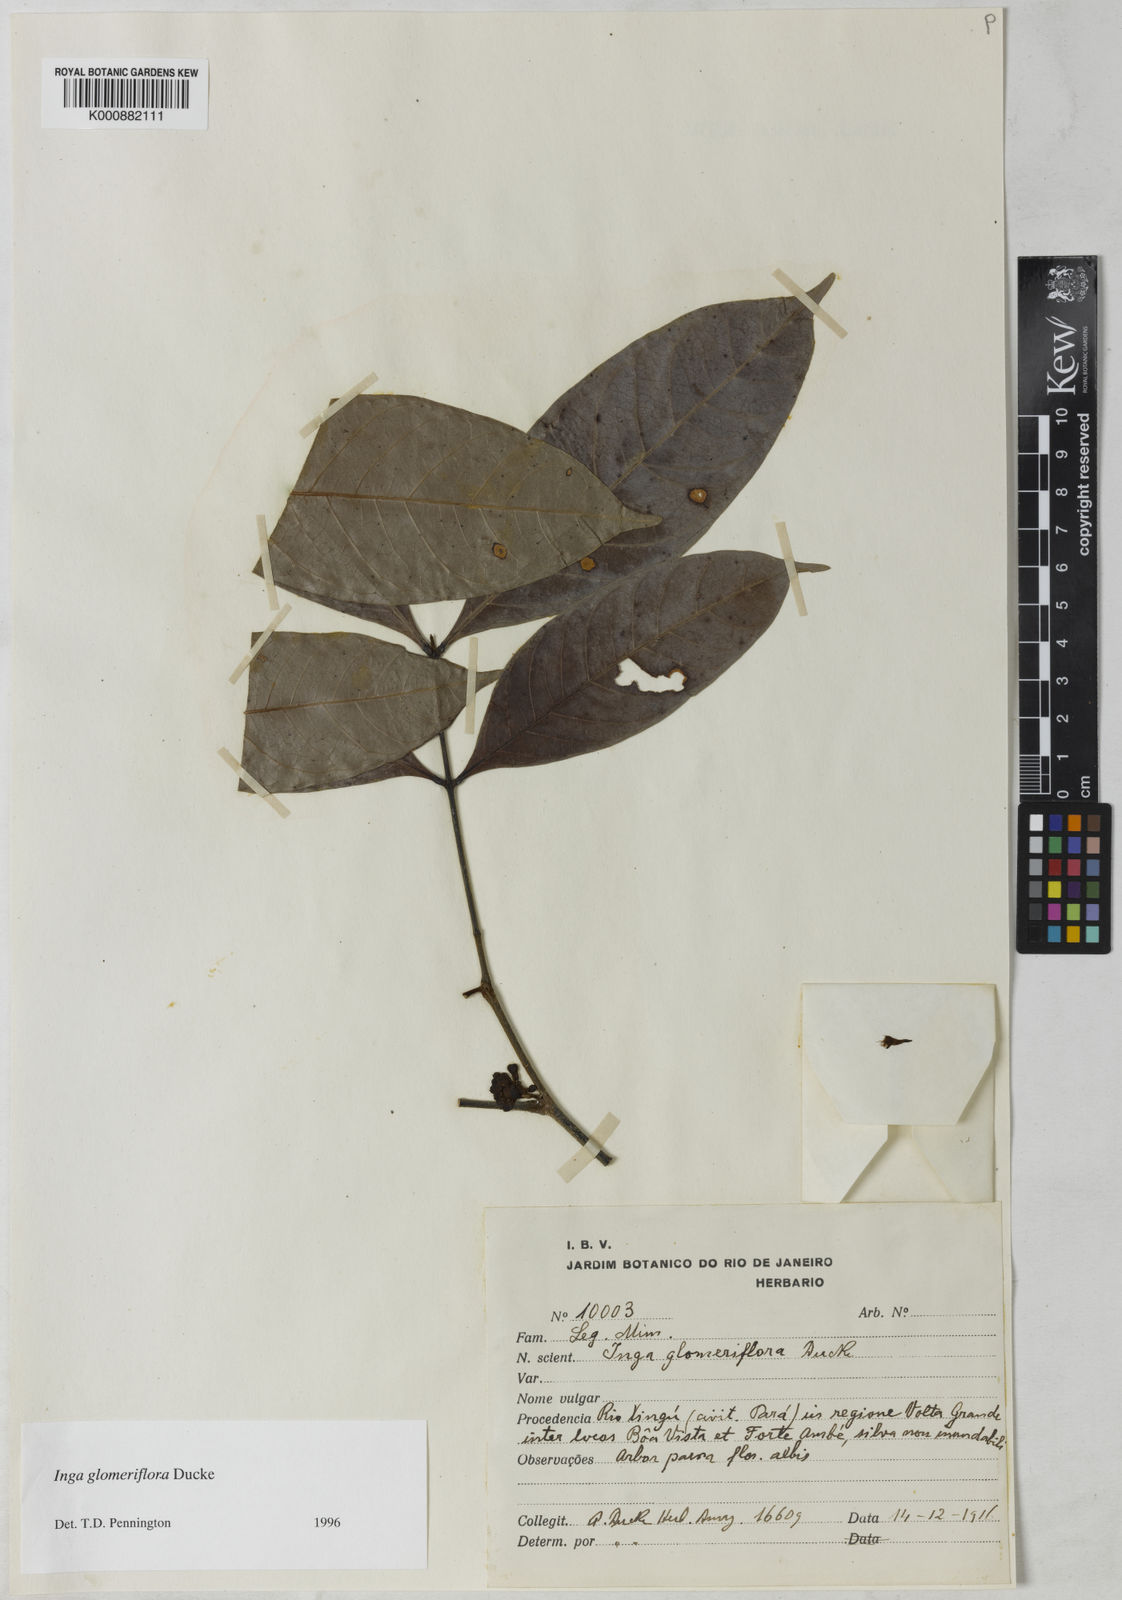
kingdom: Plantae
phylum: Tracheophyta
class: Magnoliopsida
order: Fabales
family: Fabaceae
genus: Inga
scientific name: Inga glomeriflora
